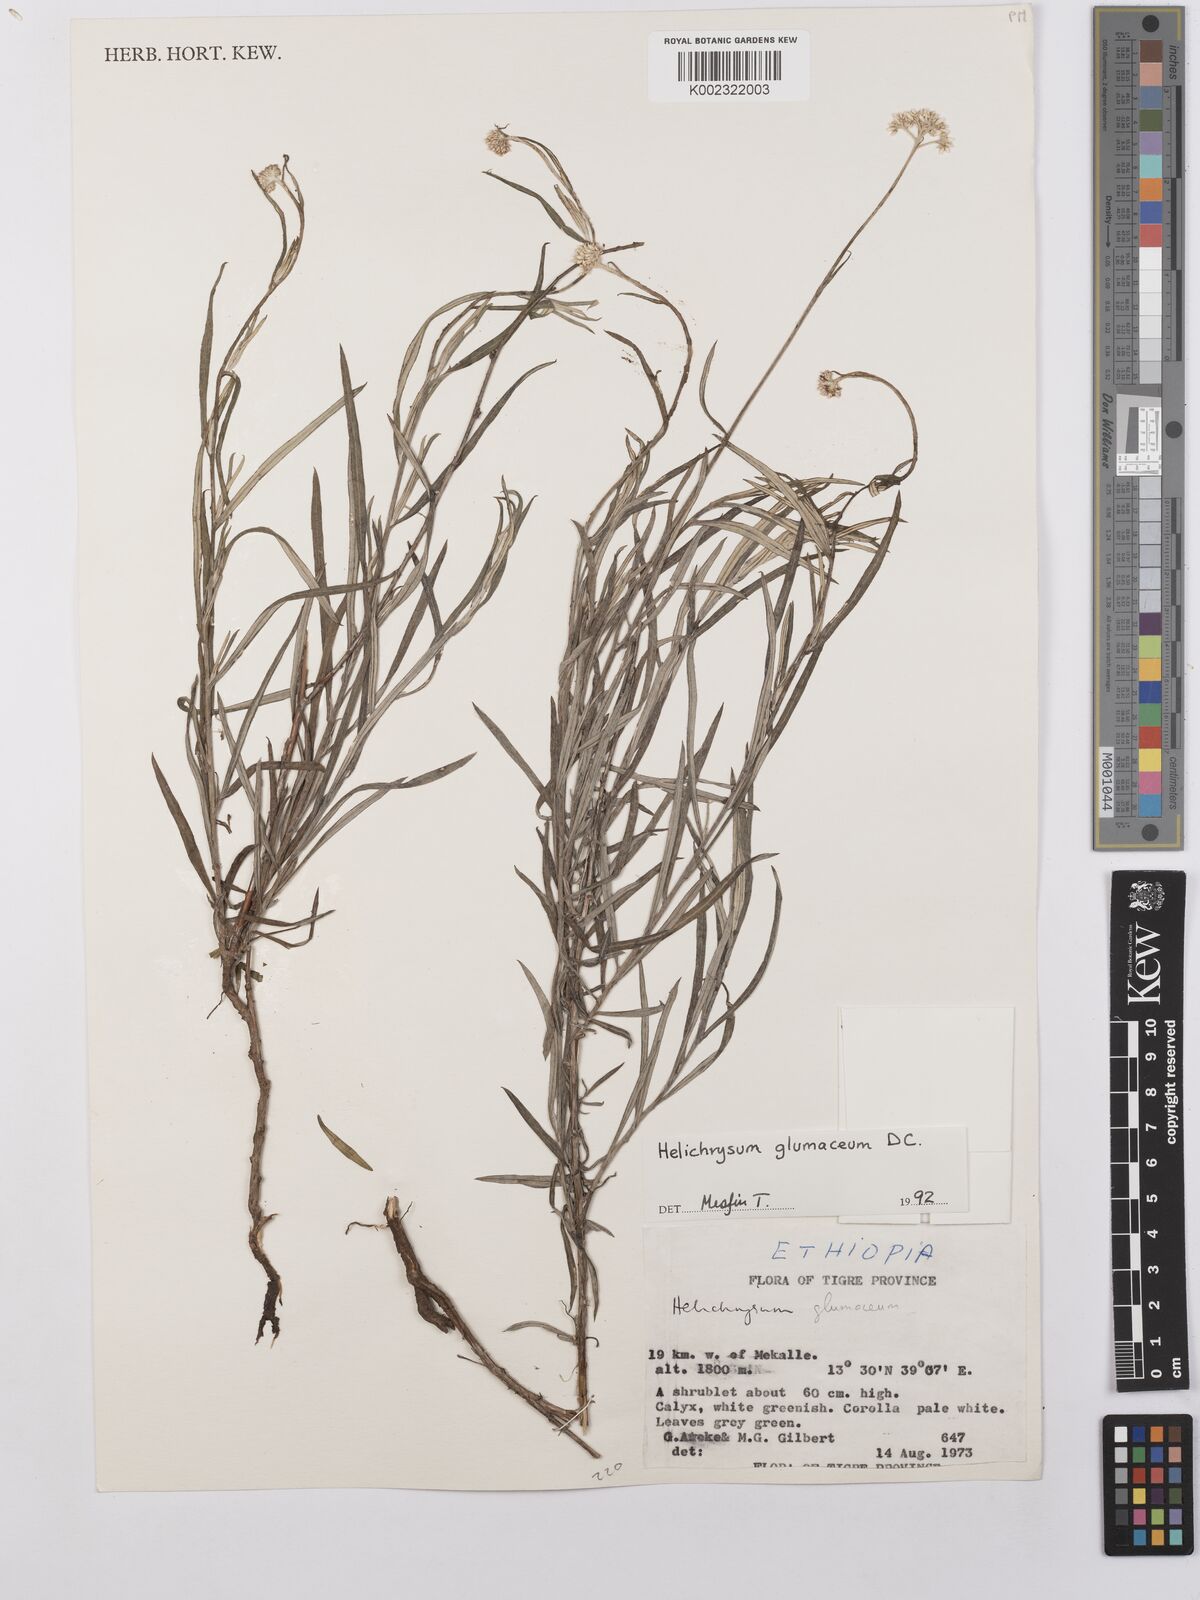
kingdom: Plantae
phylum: Tracheophyta
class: Magnoliopsida
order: Asterales
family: Asteraceae
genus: Helichrysum
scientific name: Helichrysum glumaceum
